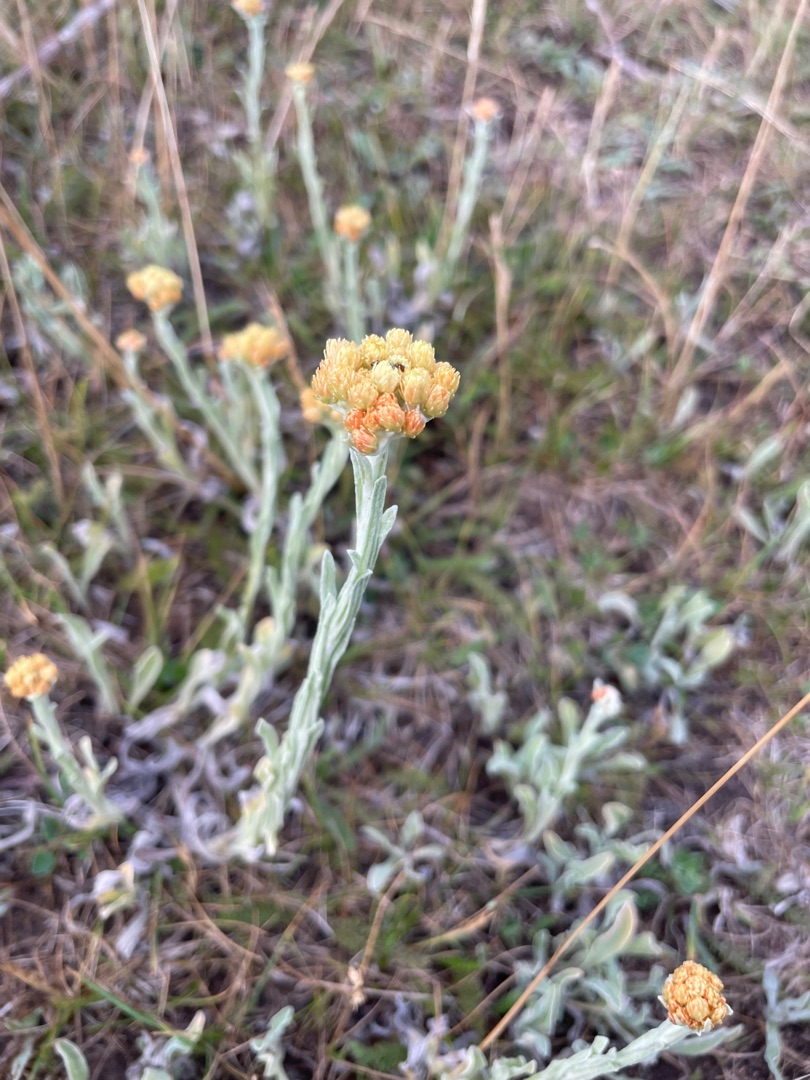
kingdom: Plantae
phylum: Tracheophyta
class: Magnoliopsida
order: Asterales
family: Asteraceae
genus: Helichrysum
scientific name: Helichrysum arenarium
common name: Gul evighedsblomst
